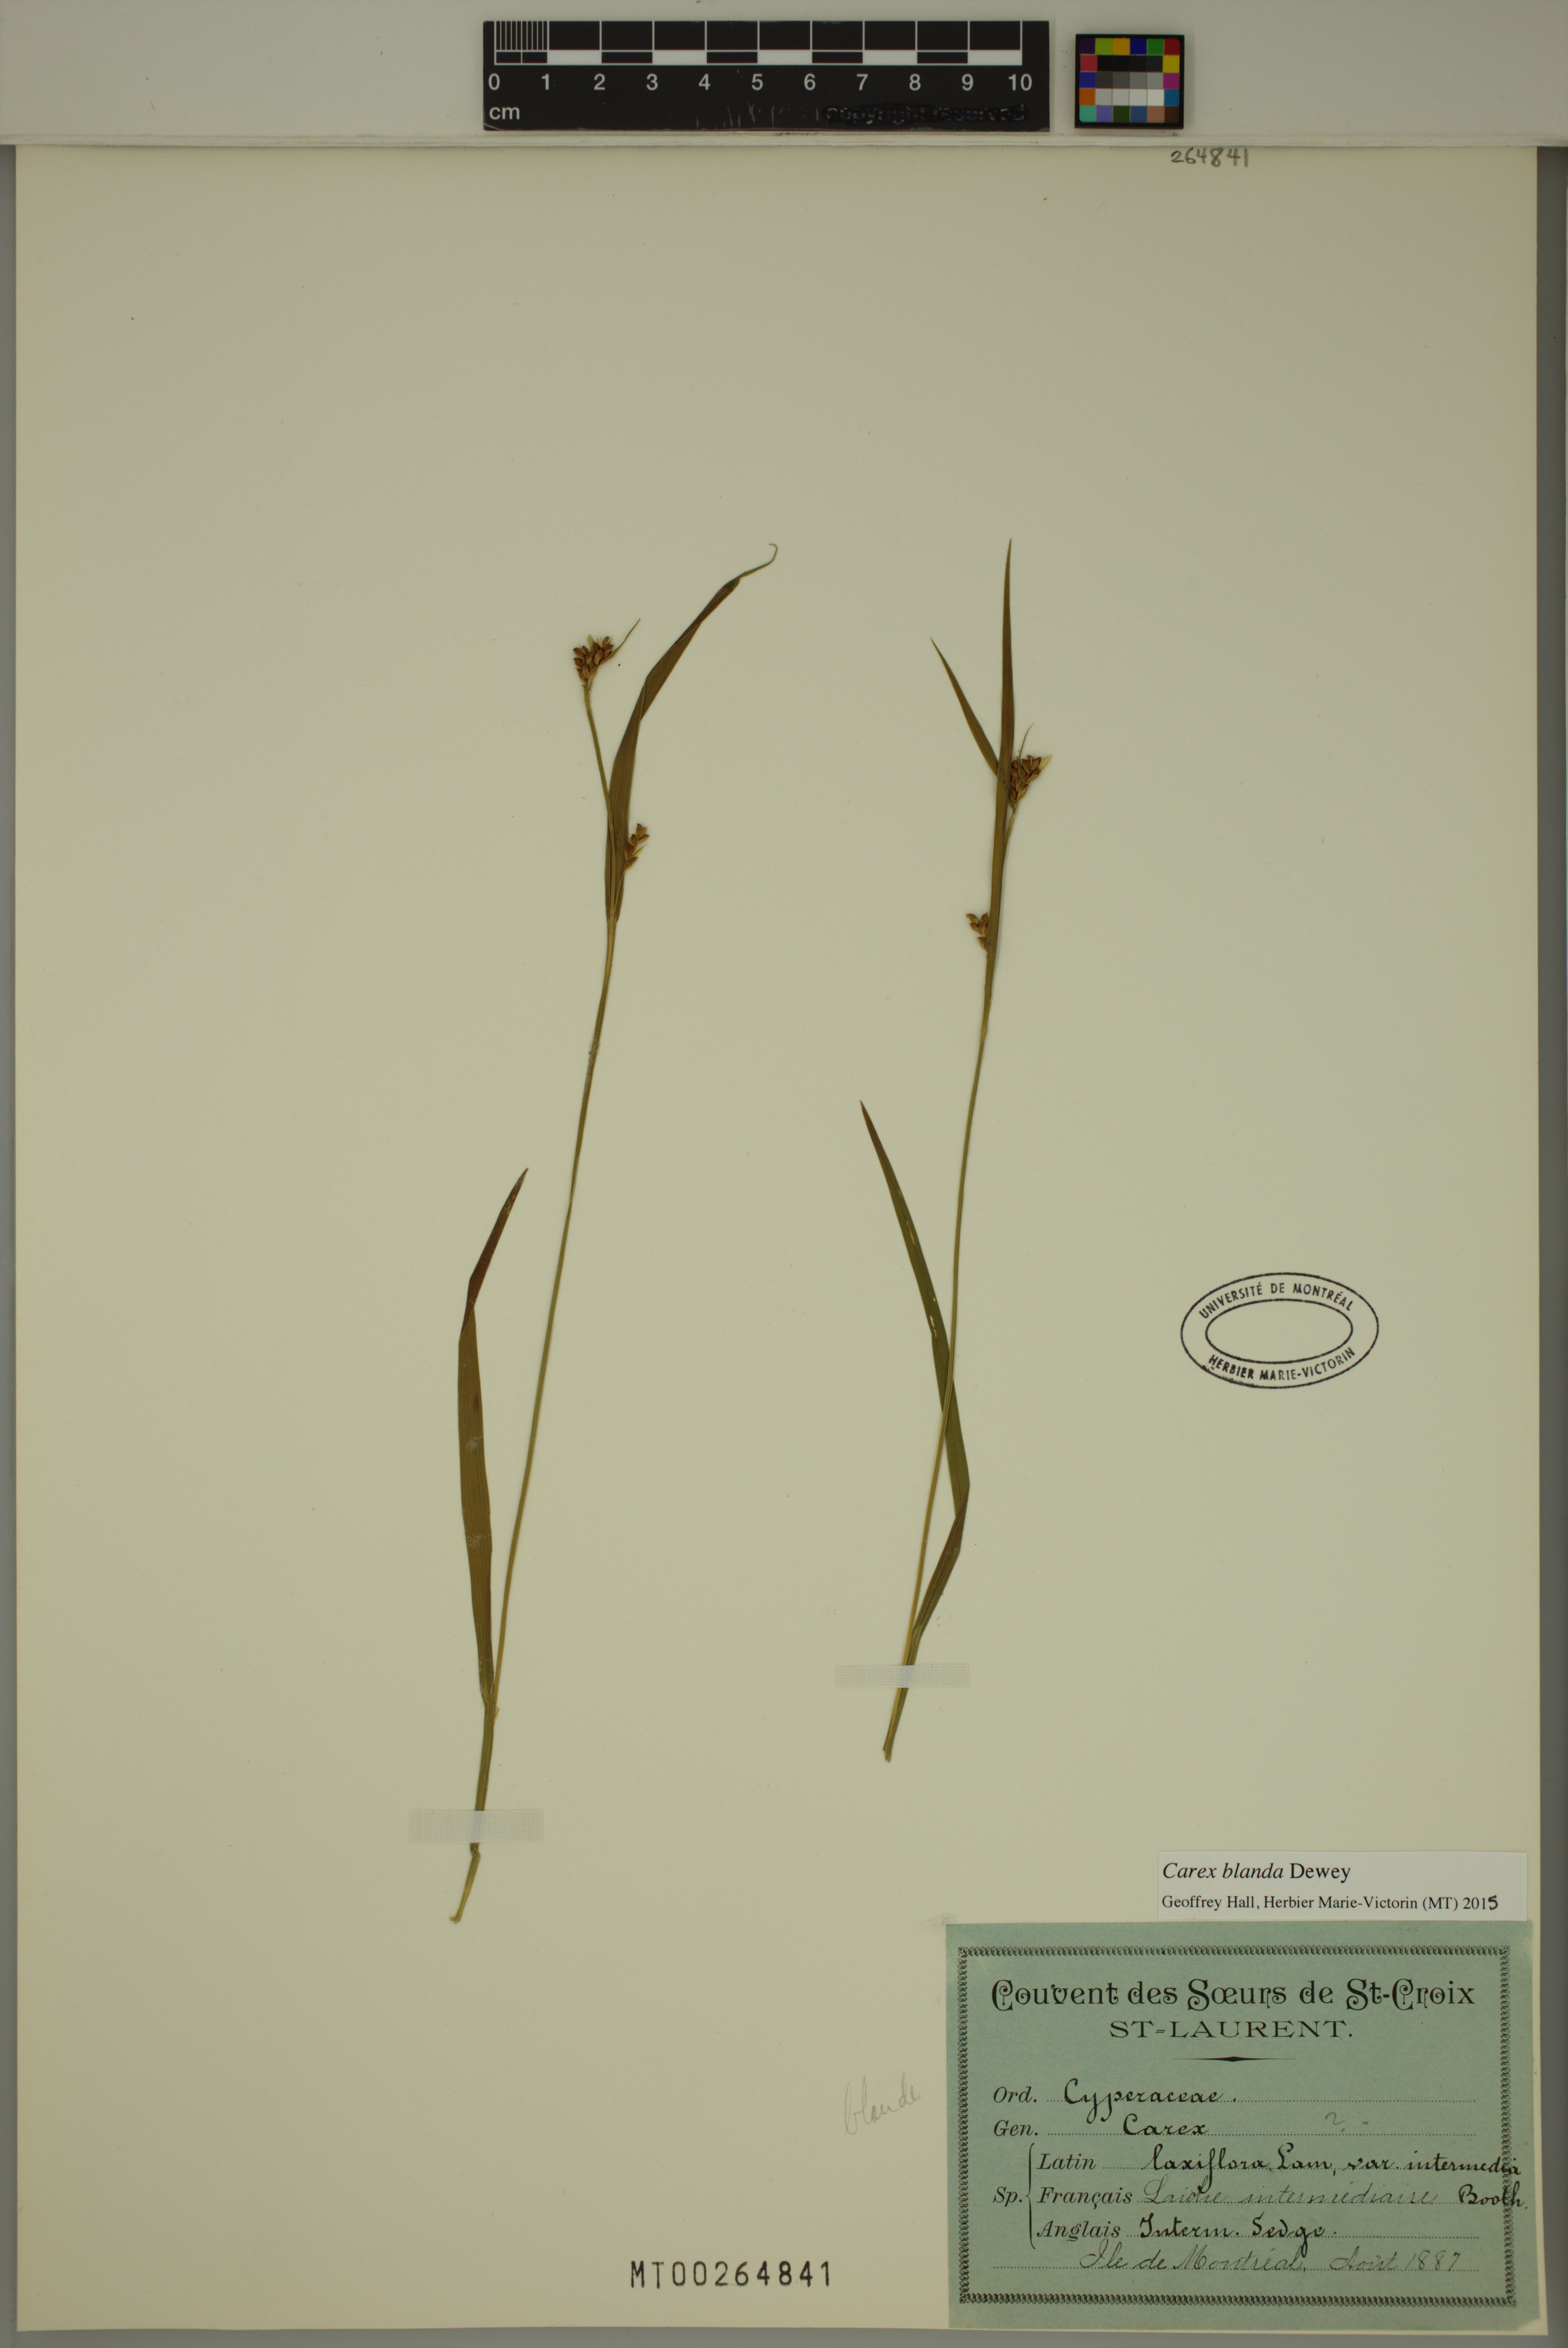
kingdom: Plantae
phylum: Tracheophyta
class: Liliopsida
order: Poales
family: Cyperaceae
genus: Carex
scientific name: Carex blanda
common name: Bland sedge
